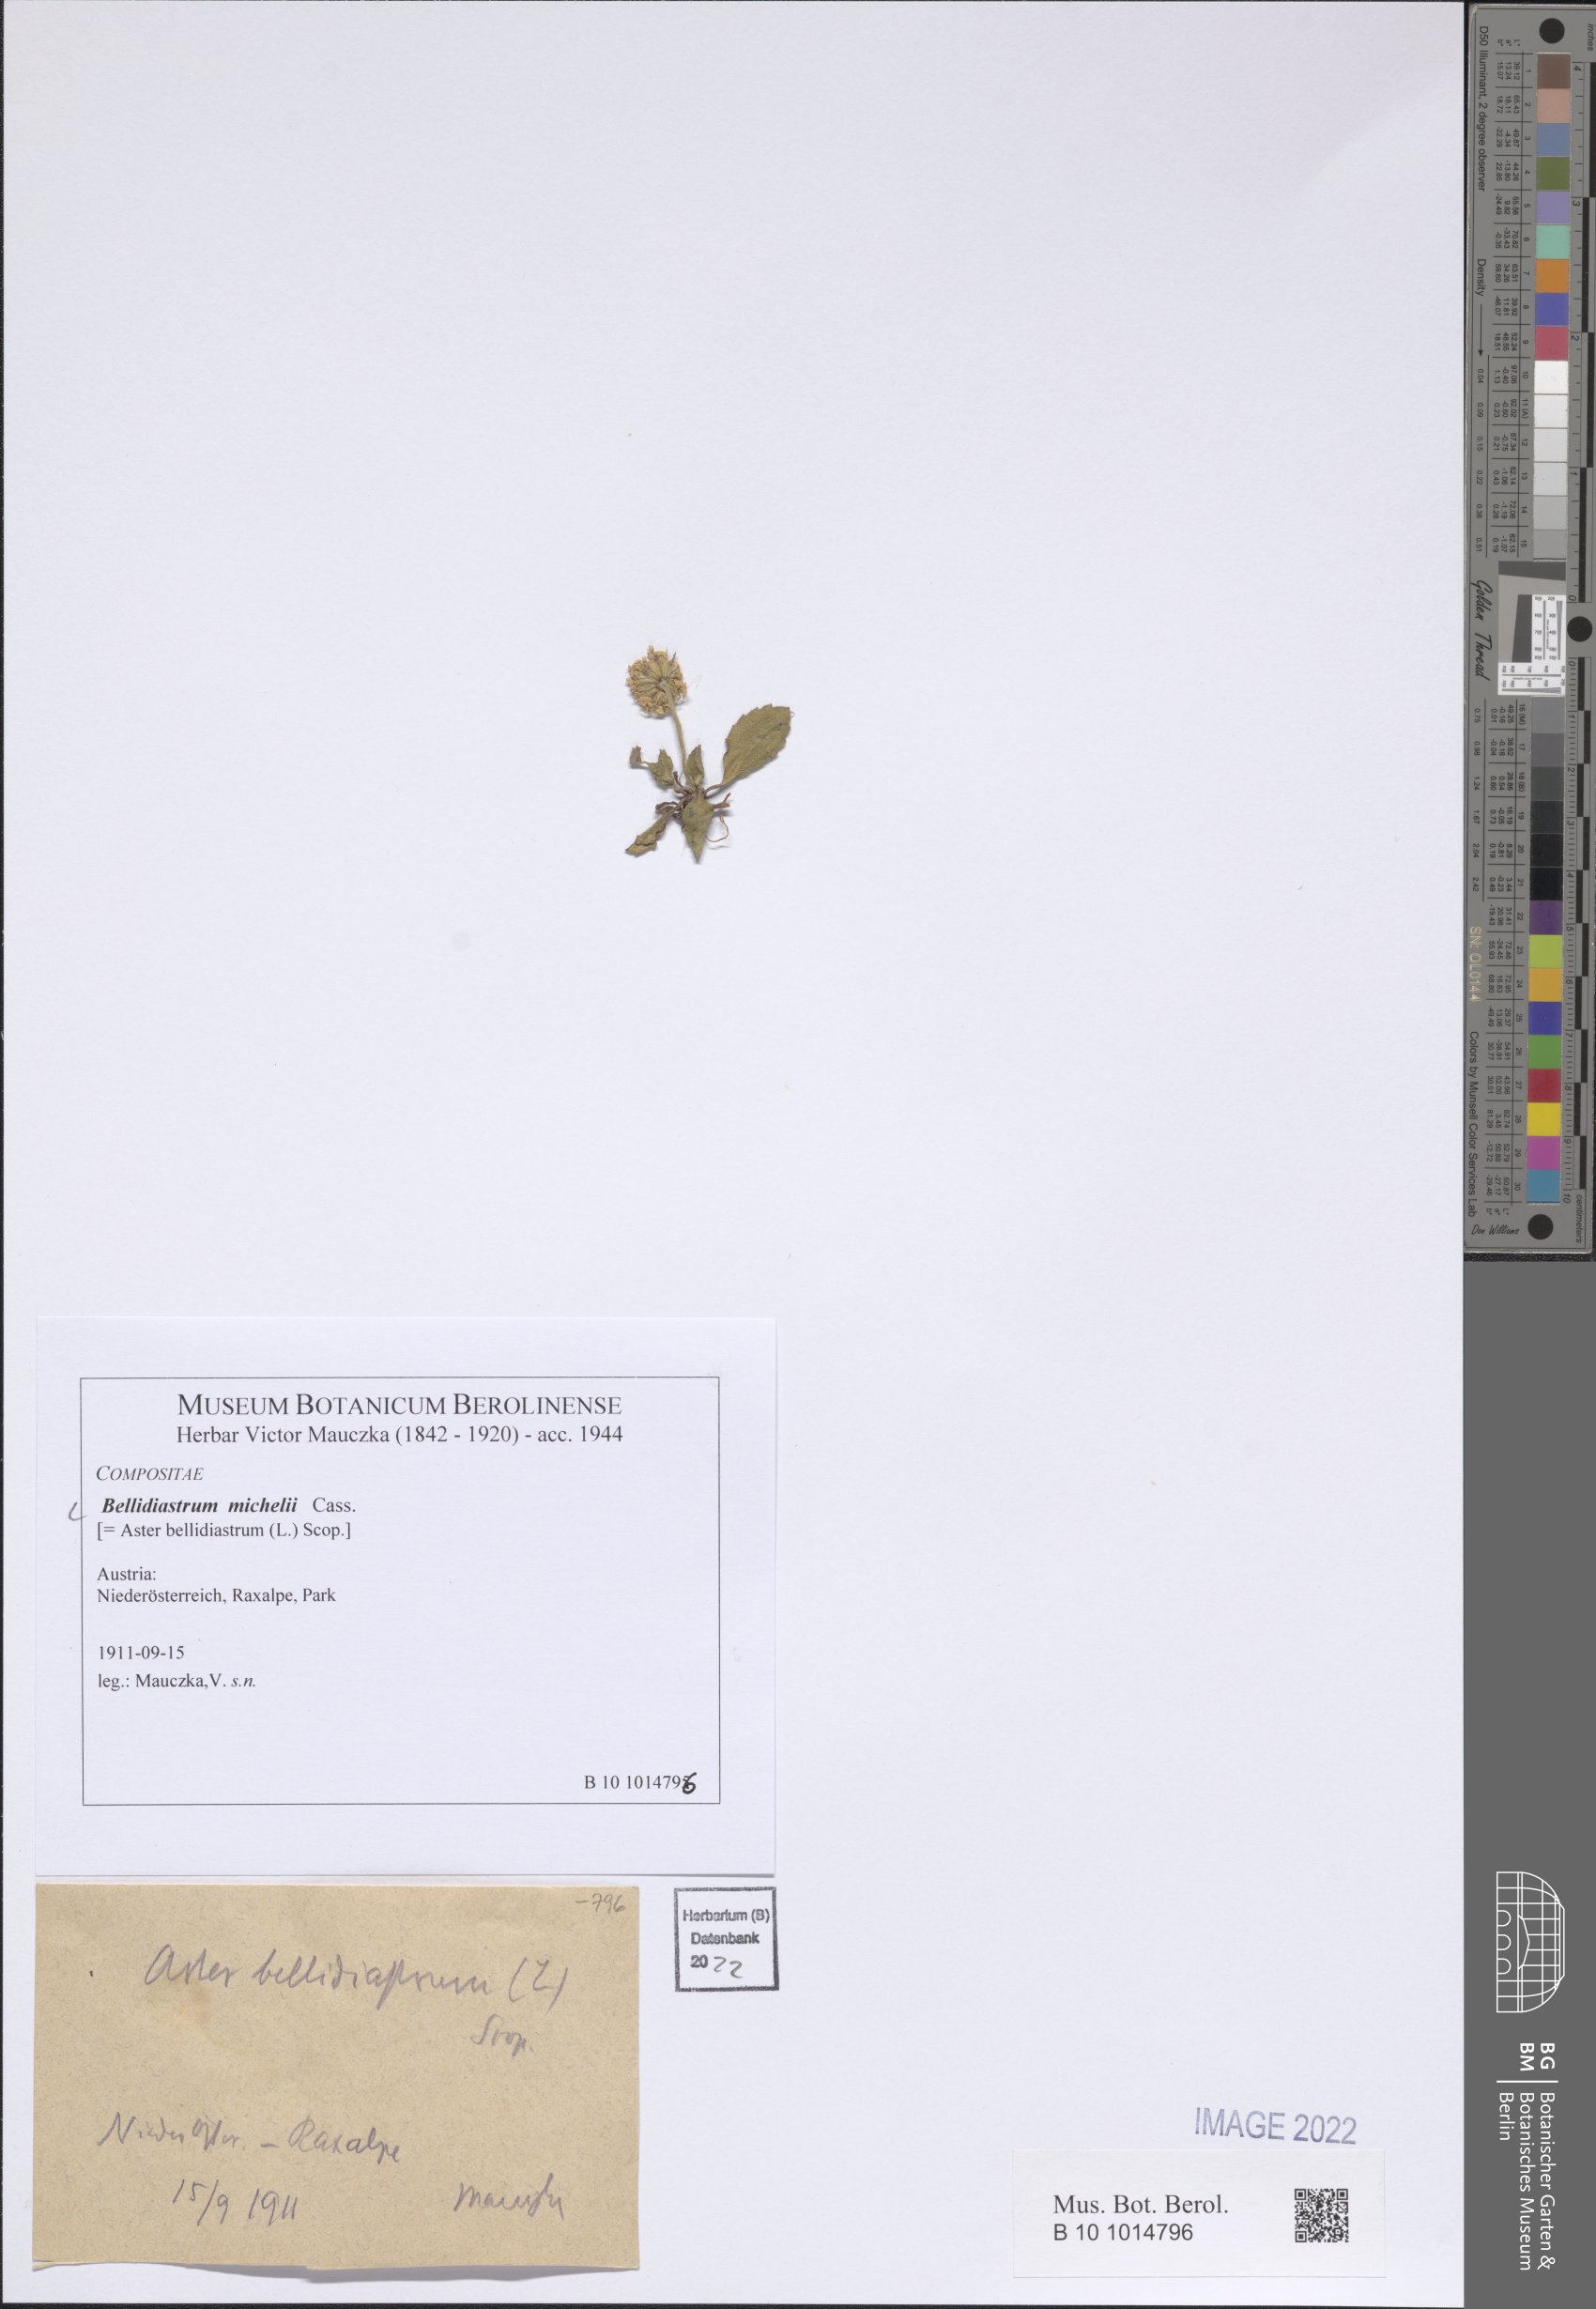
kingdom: Plantae
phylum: Tracheophyta
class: Magnoliopsida
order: Asterales
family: Asteraceae
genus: Bellidiastrum
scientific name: Bellidiastrum michelii
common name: Daisy-star aster
